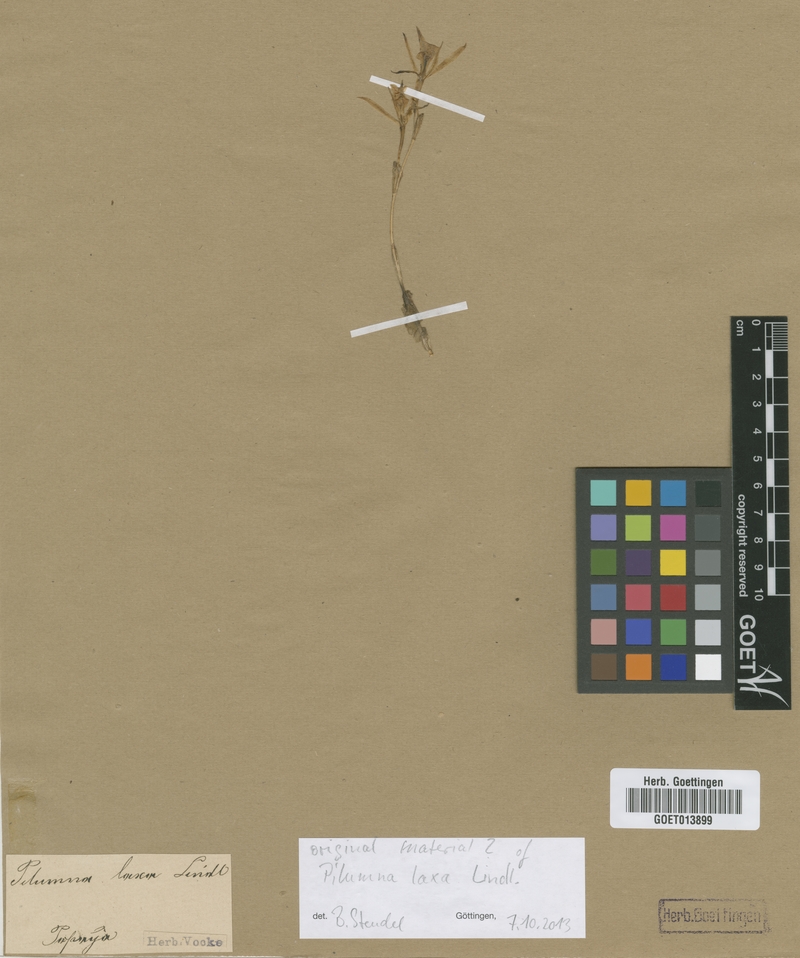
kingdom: Plantae
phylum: Tracheophyta
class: Liliopsida
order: Asparagales
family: Orchidaceae
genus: Trichopilia
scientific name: Trichopilia laxa
